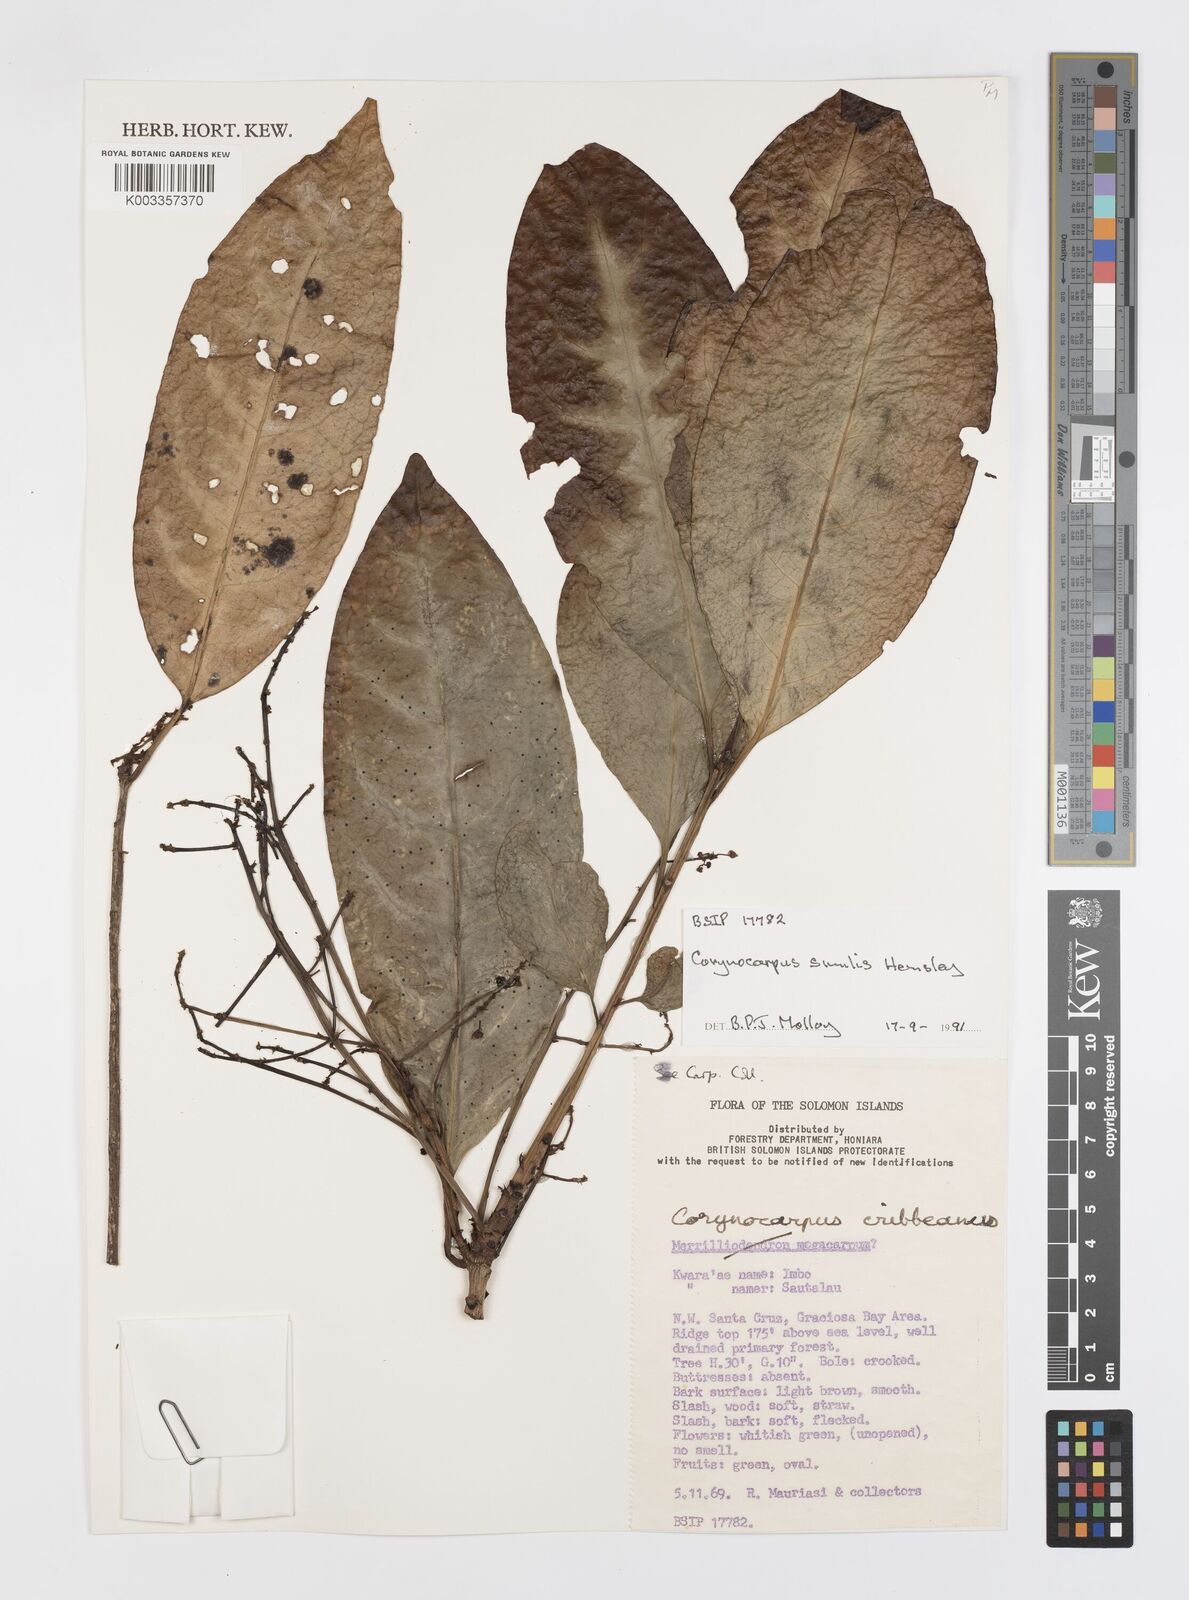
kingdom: Plantae
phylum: Tracheophyta
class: Magnoliopsida
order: Cucurbitales
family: Corynocarpaceae
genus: Corynocarpus
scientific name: Corynocarpus similis
